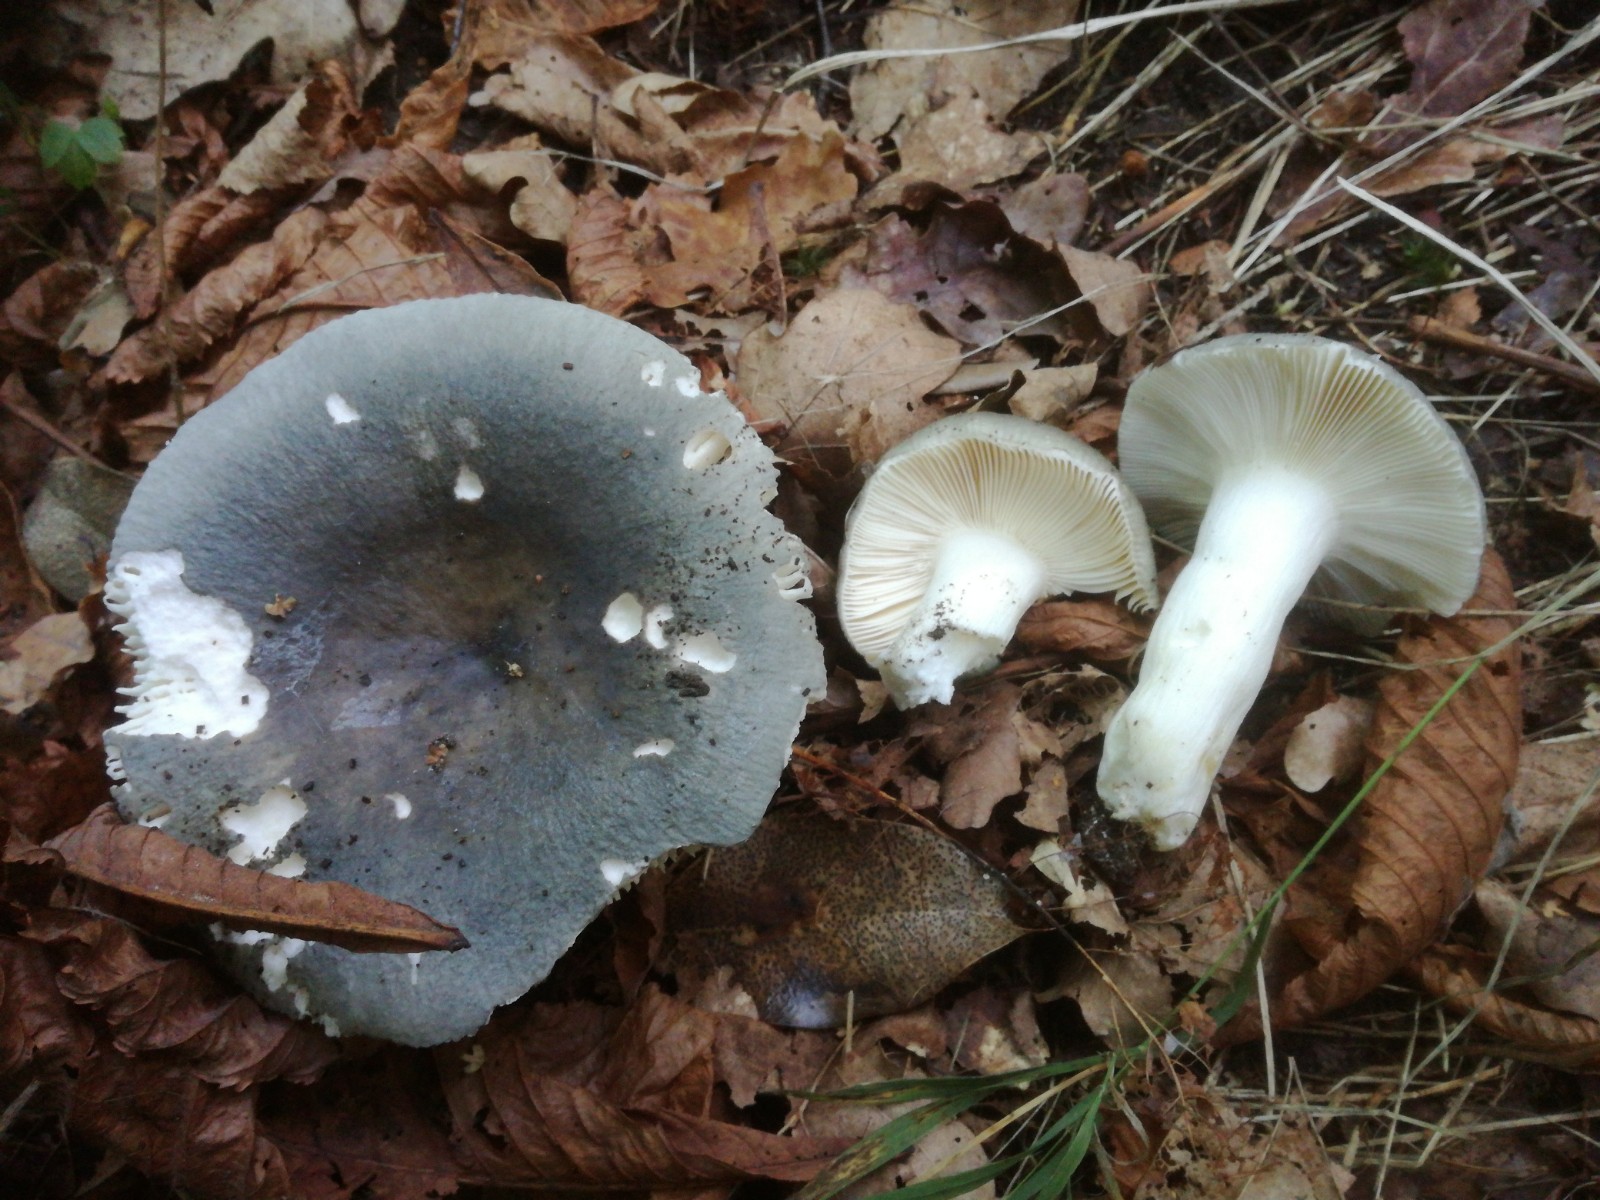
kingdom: Fungi
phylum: Basidiomycota
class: Agaricomycetes
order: Russulales
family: Russulaceae
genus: Russula
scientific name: Russula parazurea
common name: blågrå skørhat
